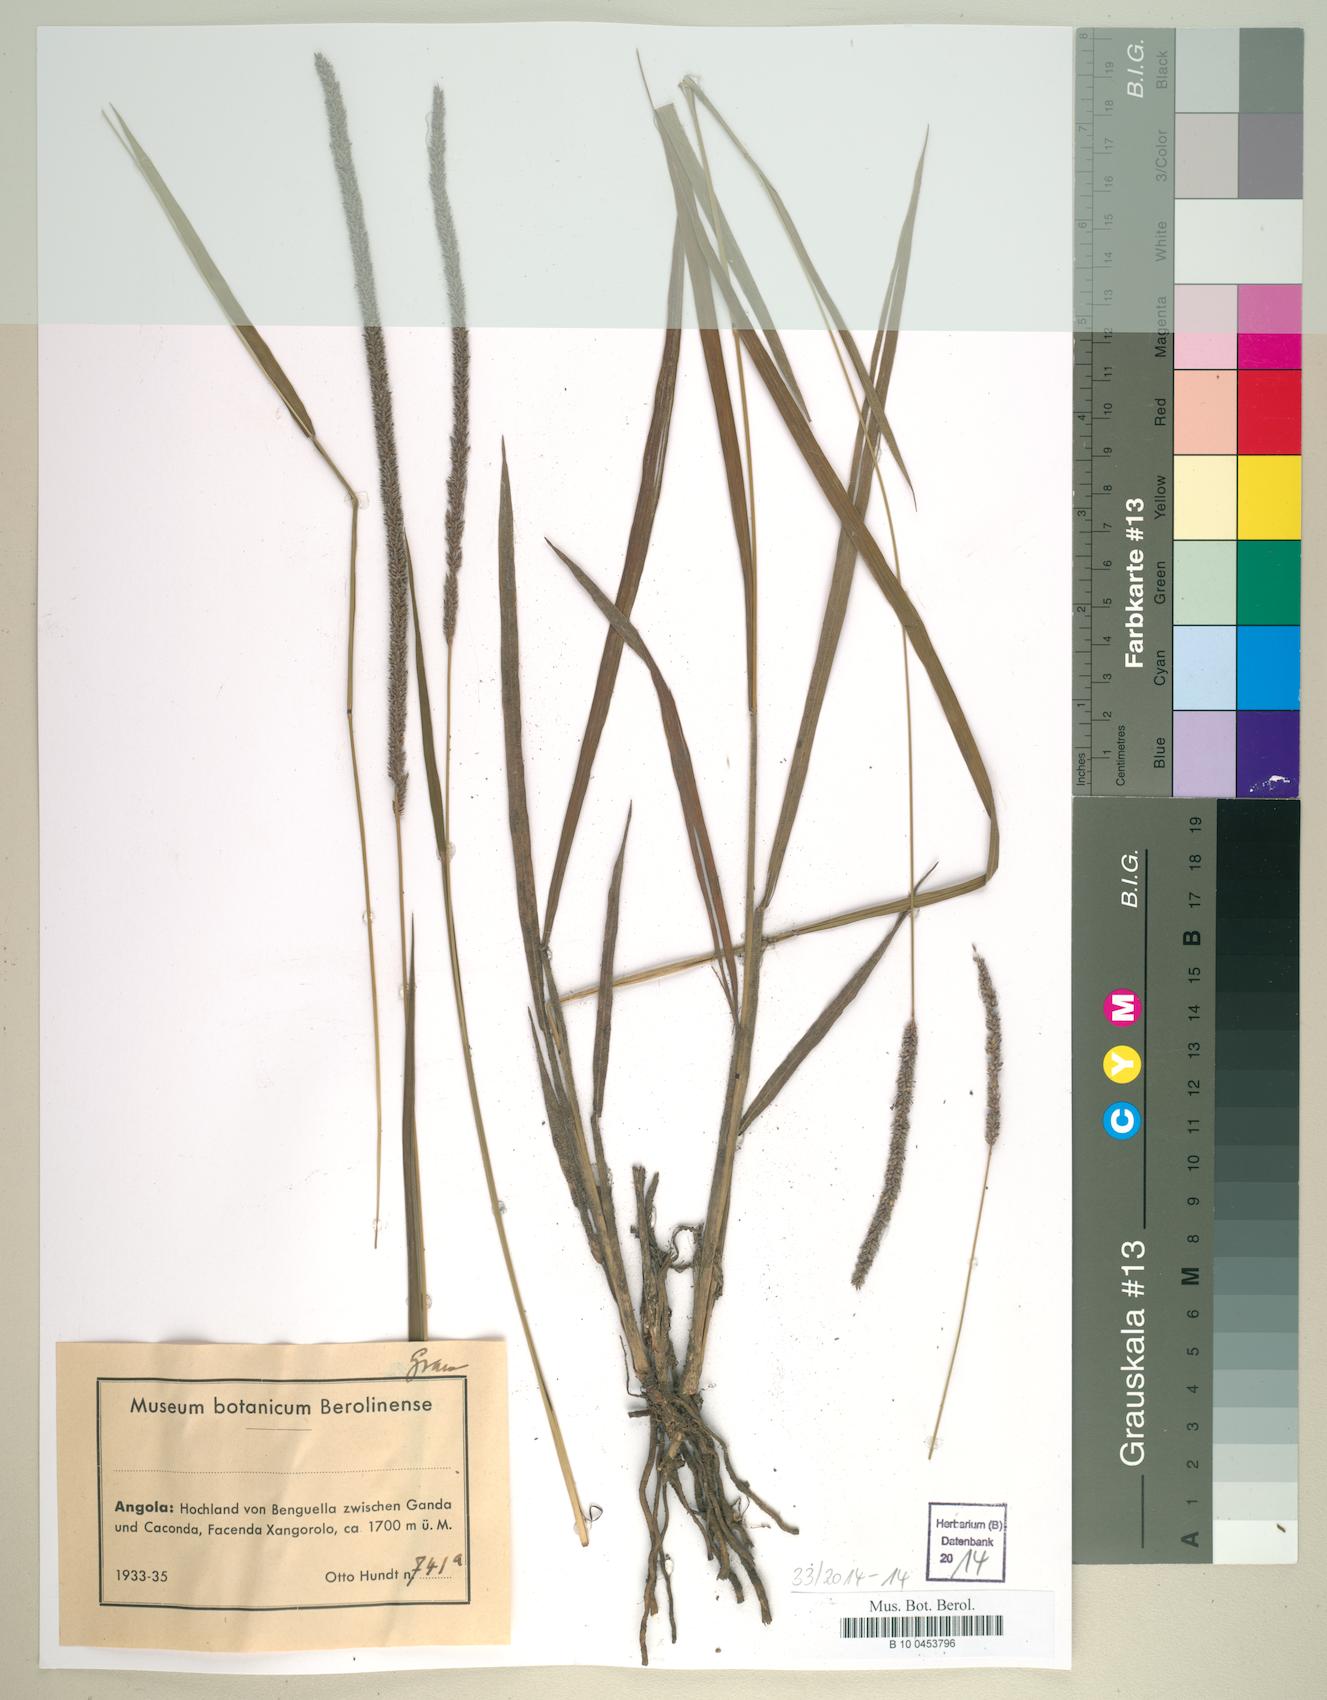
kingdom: Plantae
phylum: Tracheophyta
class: Liliopsida
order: Poales
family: Poaceae
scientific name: Poaceae
